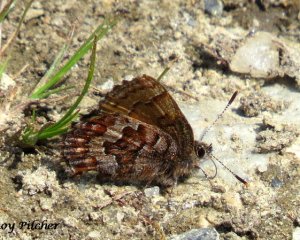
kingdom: Animalia
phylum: Arthropoda
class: Insecta
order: Lepidoptera
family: Lycaenidae
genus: Incisalia
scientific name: Incisalia niphon
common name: Eastern Pine Elfin
